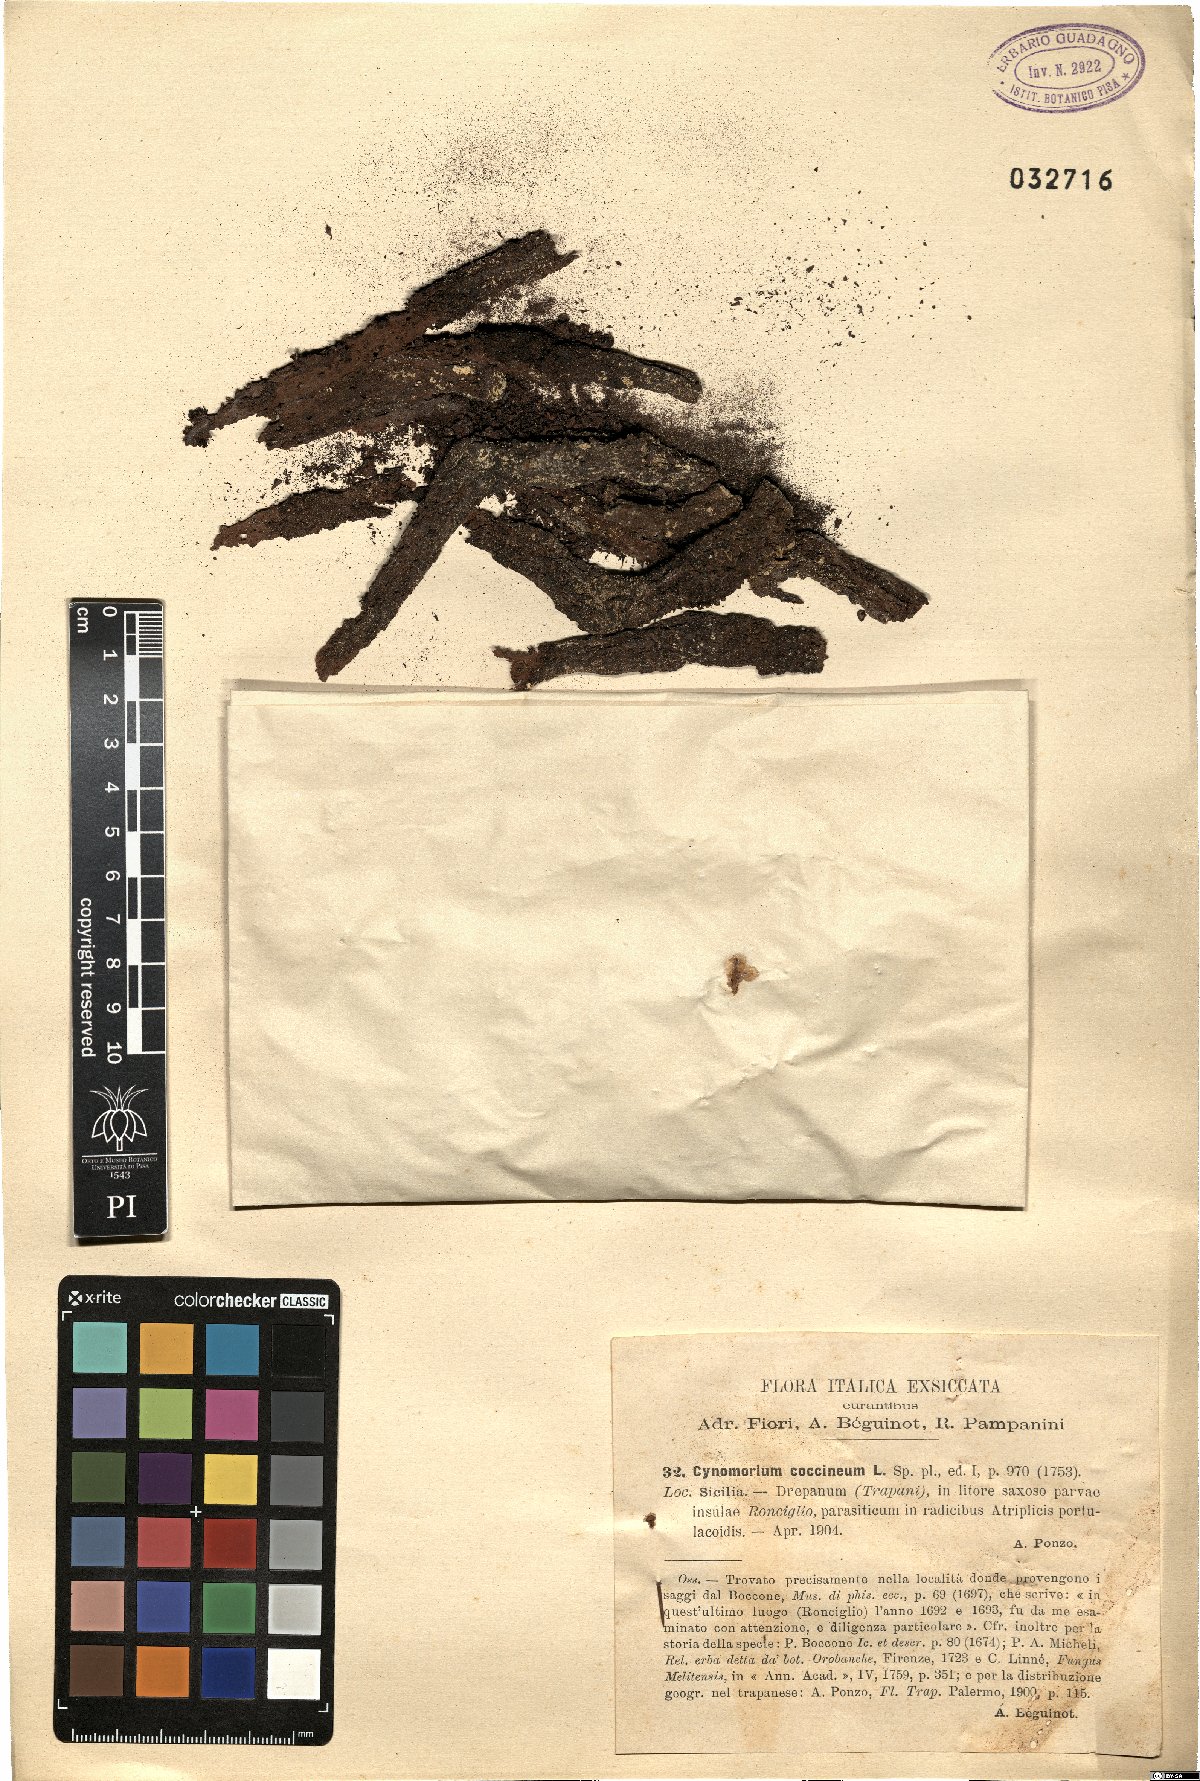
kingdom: Plantae
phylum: Tracheophyta
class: Magnoliopsida
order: Saxifragales
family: Cynomoriaceae
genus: Cynomorium
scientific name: Cynomorium coccineum
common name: Maltese-mushroom
